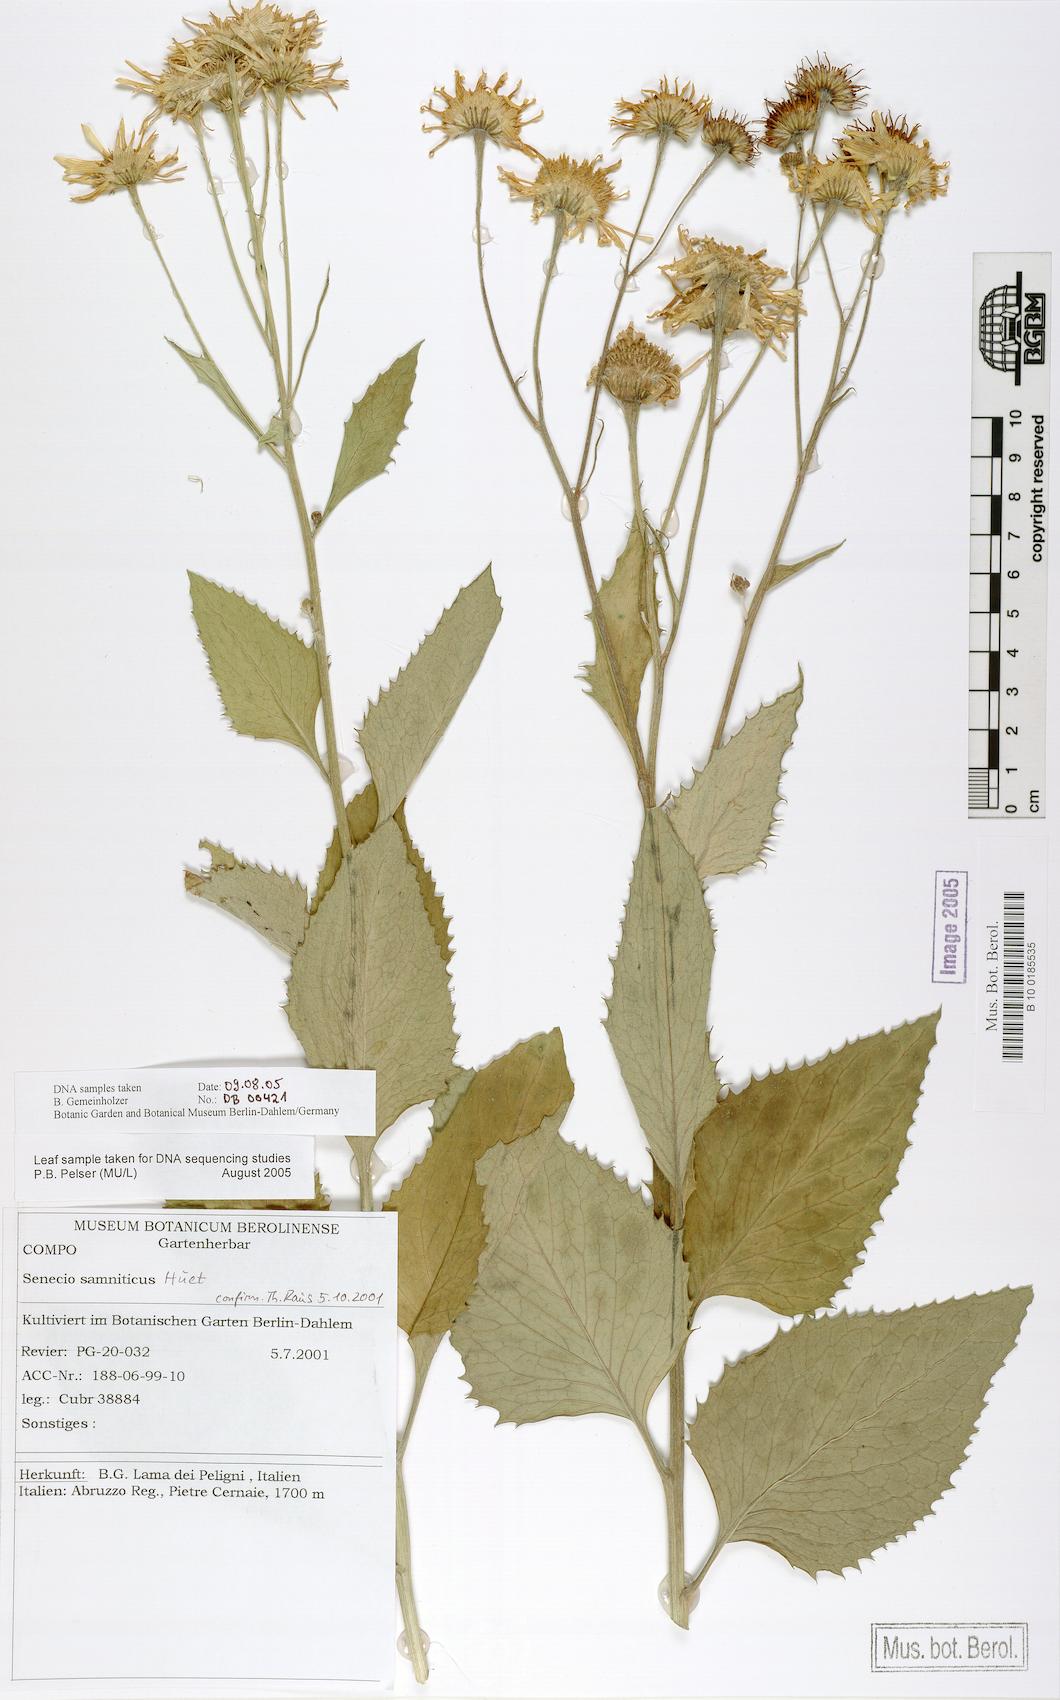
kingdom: Plantae
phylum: Tracheophyta
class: Magnoliopsida
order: Asterales
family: Asteraceae
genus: Jacobaea
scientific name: Jacobaea alpina
